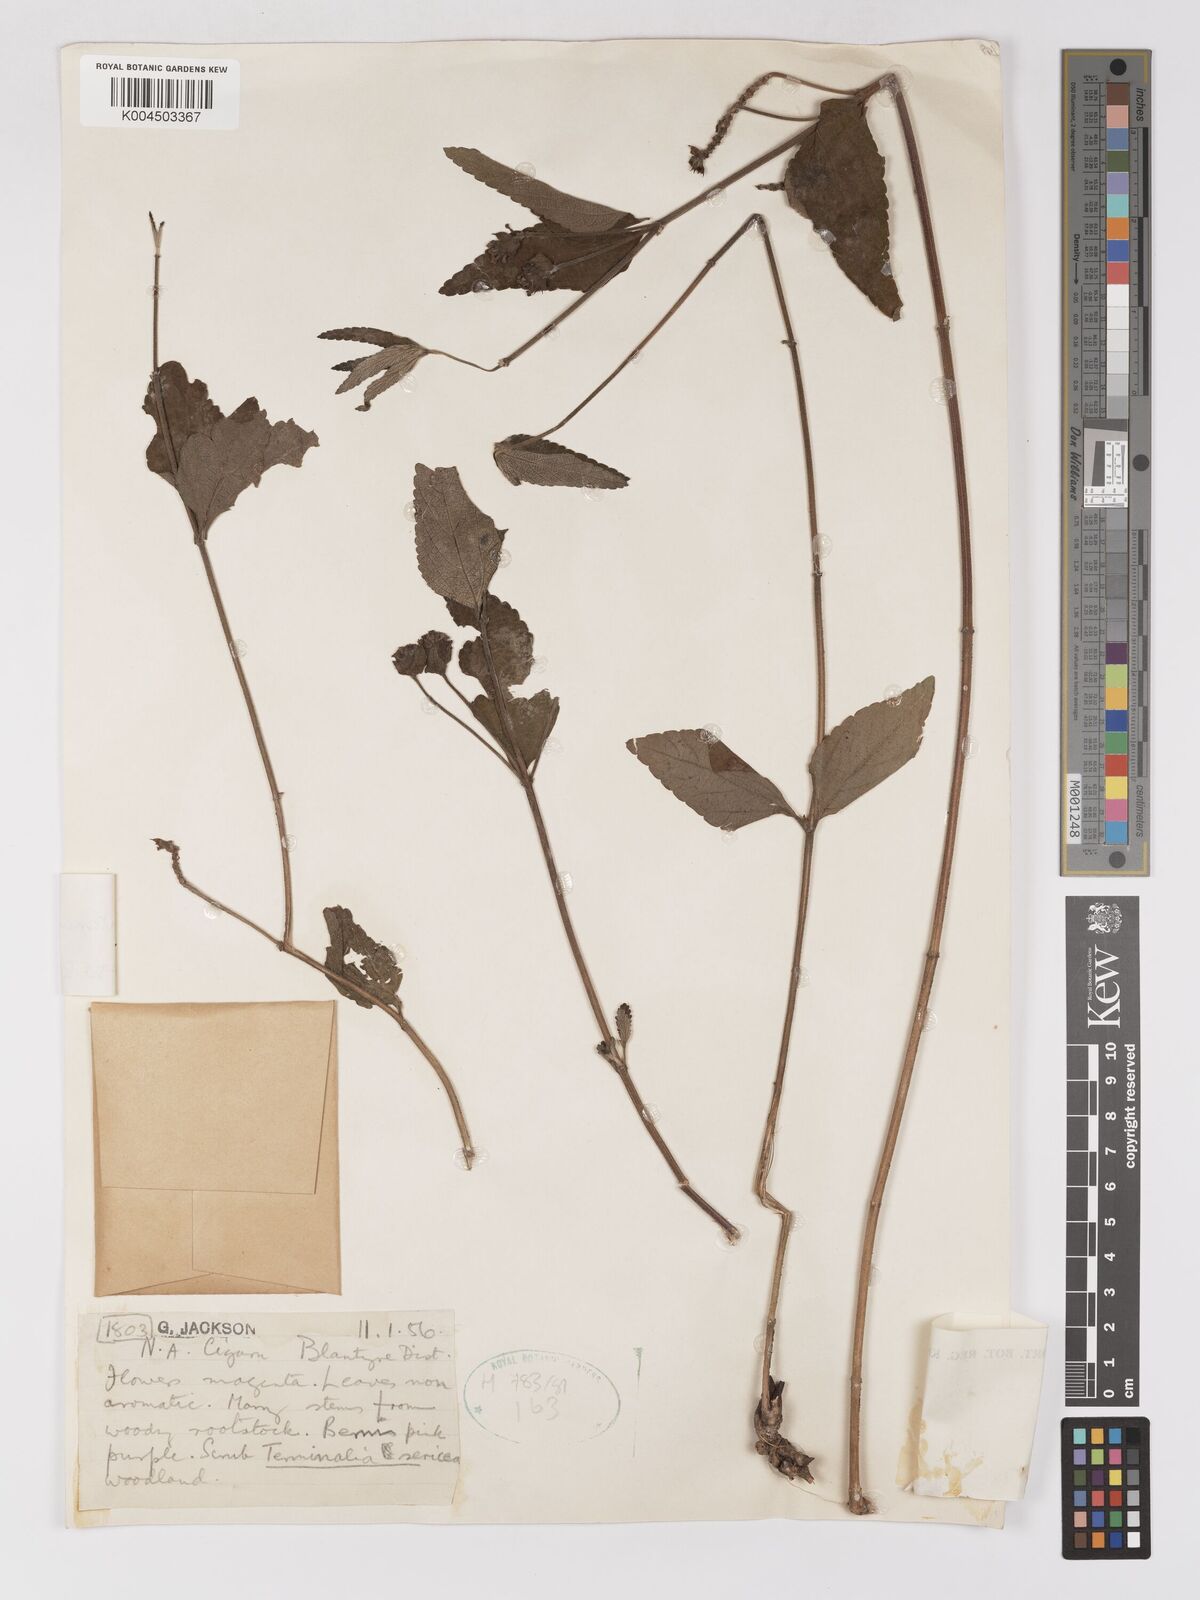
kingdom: Plantae
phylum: Tracheophyta
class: Magnoliopsida
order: Lamiales
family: Verbenaceae
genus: Lantana
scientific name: Lantana ukambensis
